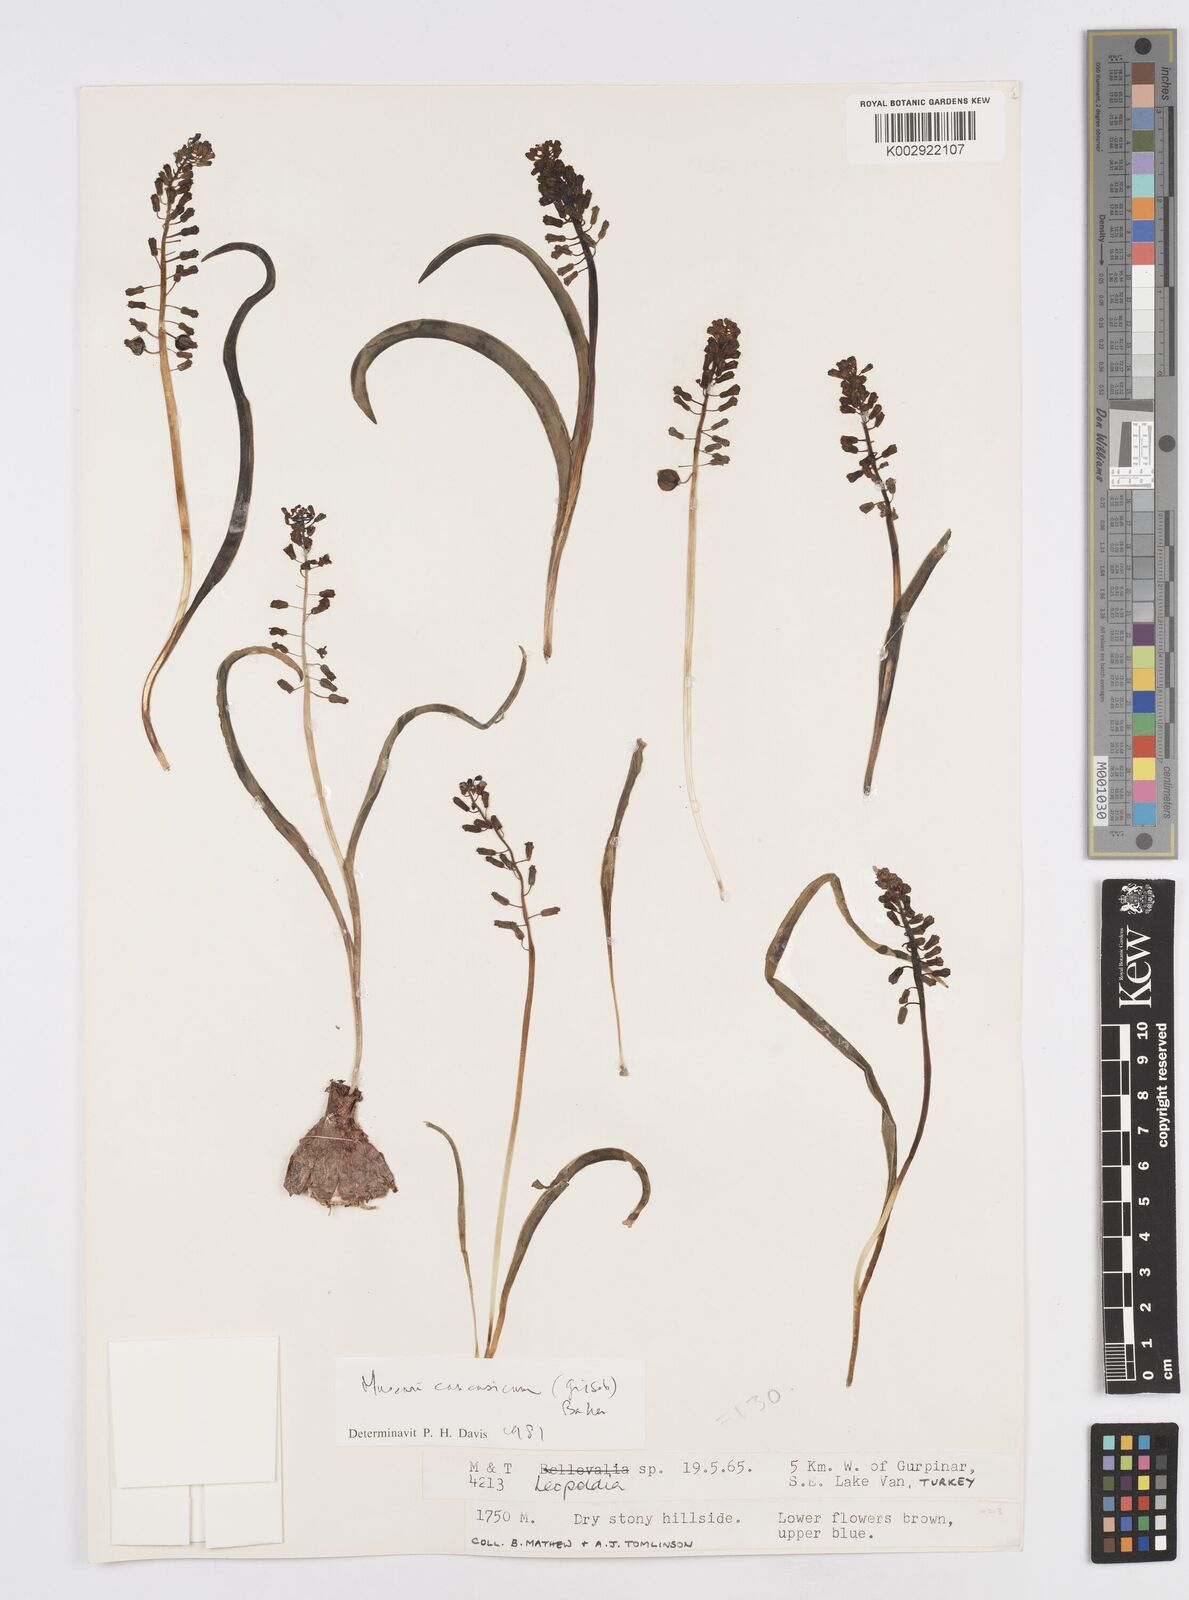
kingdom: Plantae
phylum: Tracheophyta
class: Liliopsida
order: Asparagales
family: Asparagaceae
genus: Muscari
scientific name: Muscari caucasicum
